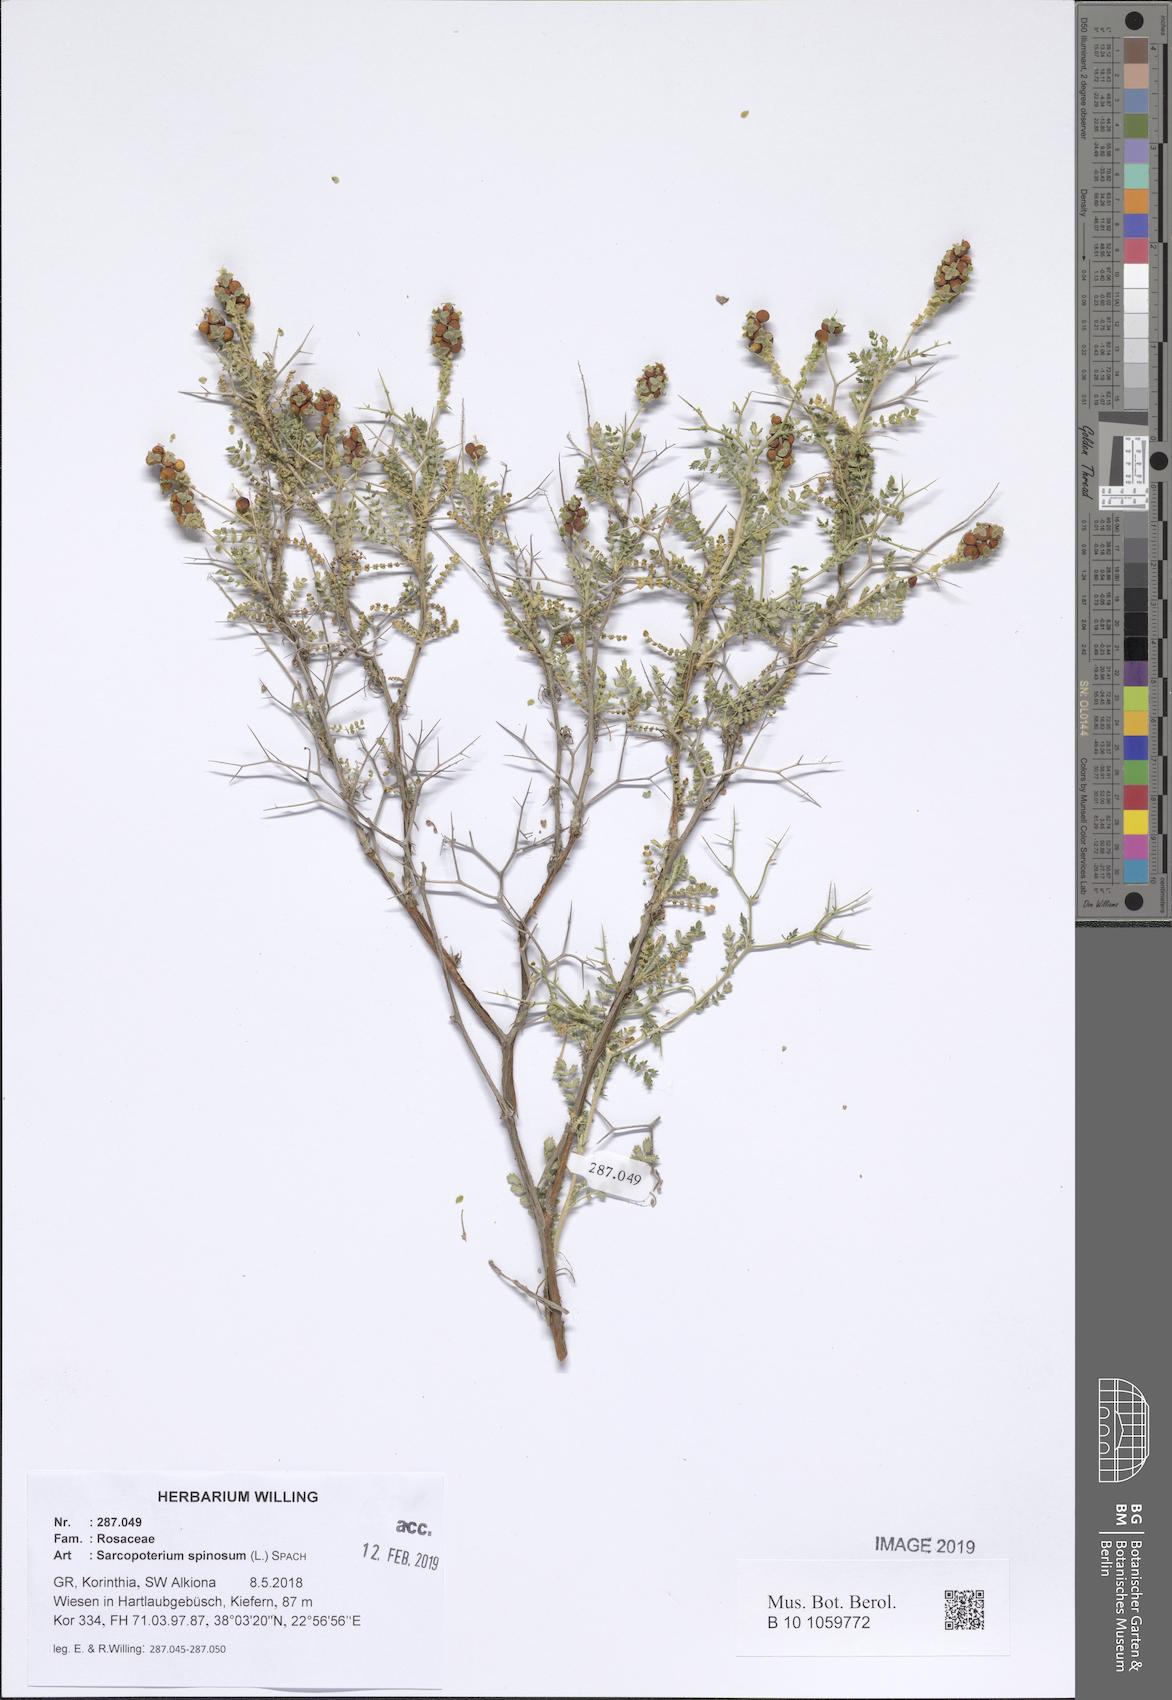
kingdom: Plantae
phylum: Tracheophyta
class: Magnoliopsida
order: Rosales
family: Rosaceae
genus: Sarcopoterium
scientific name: Sarcopoterium spinosum
